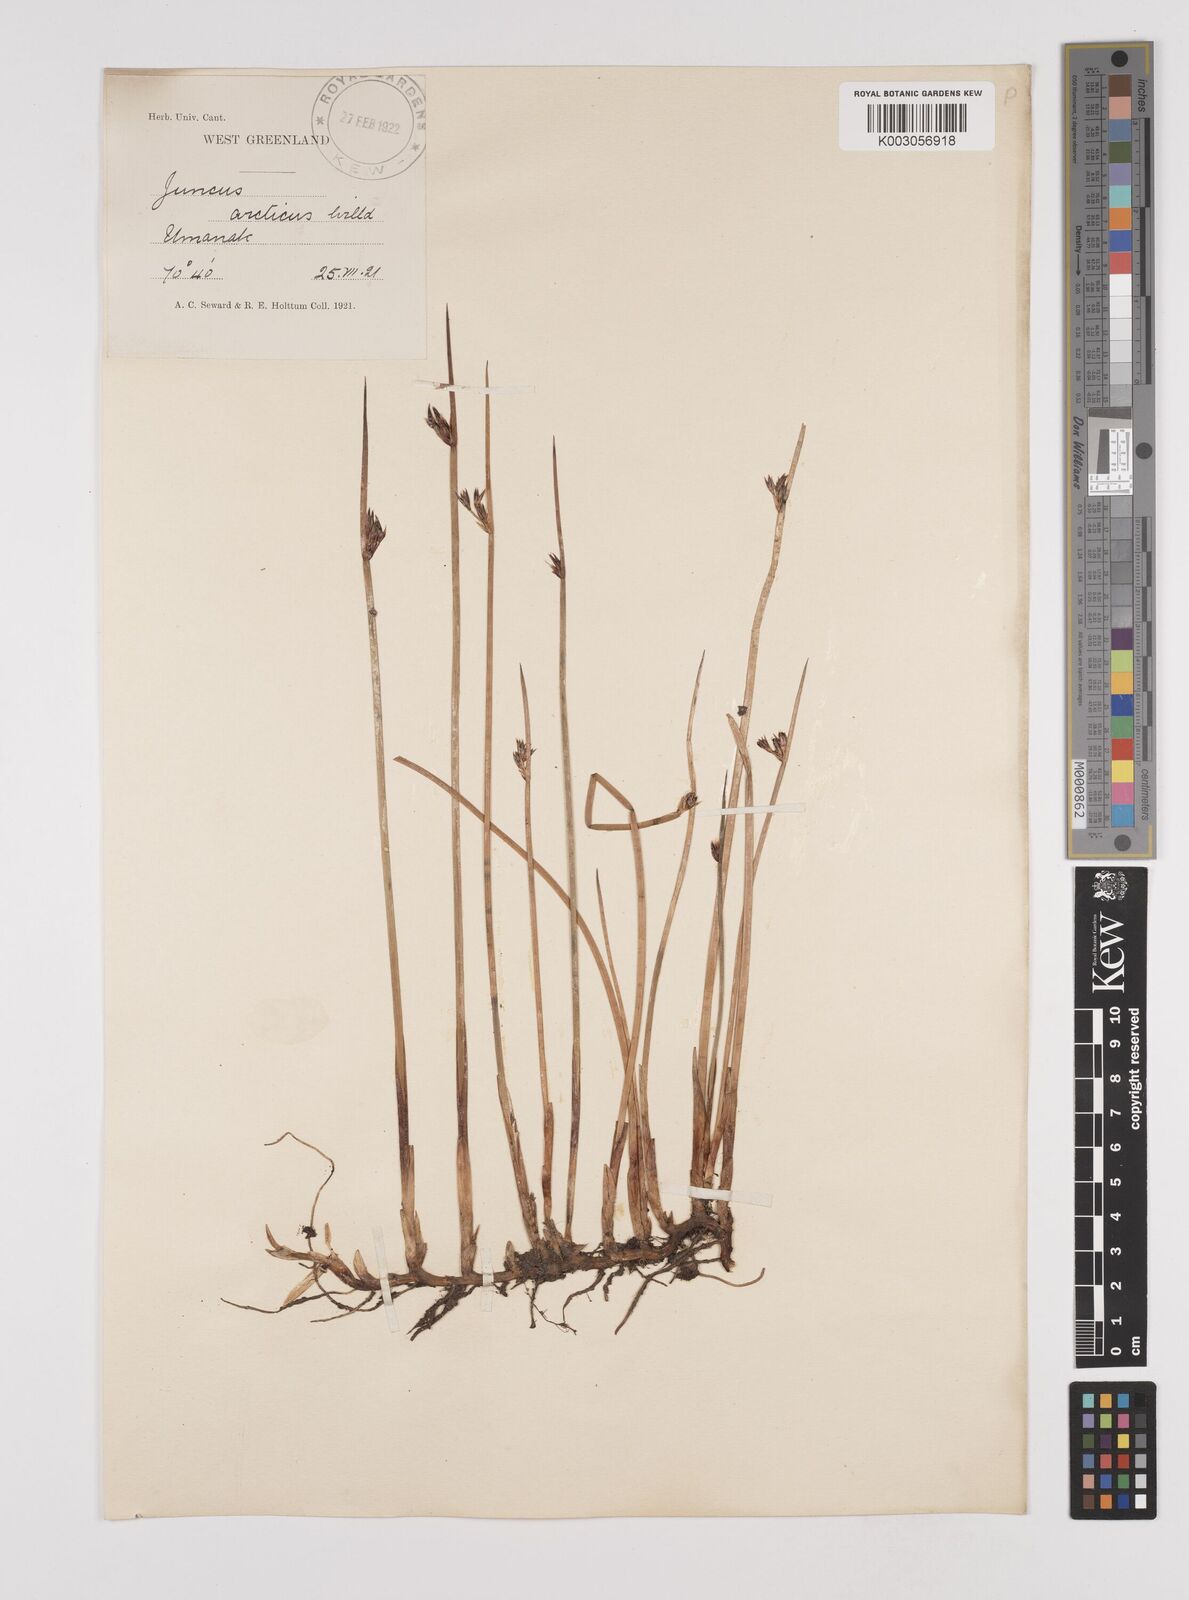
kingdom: Plantae
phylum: Tracheophyta
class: Liliopsida
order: Poales
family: Juncaceae
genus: Juncus
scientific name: Juncus arcticus
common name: Arctic rush
